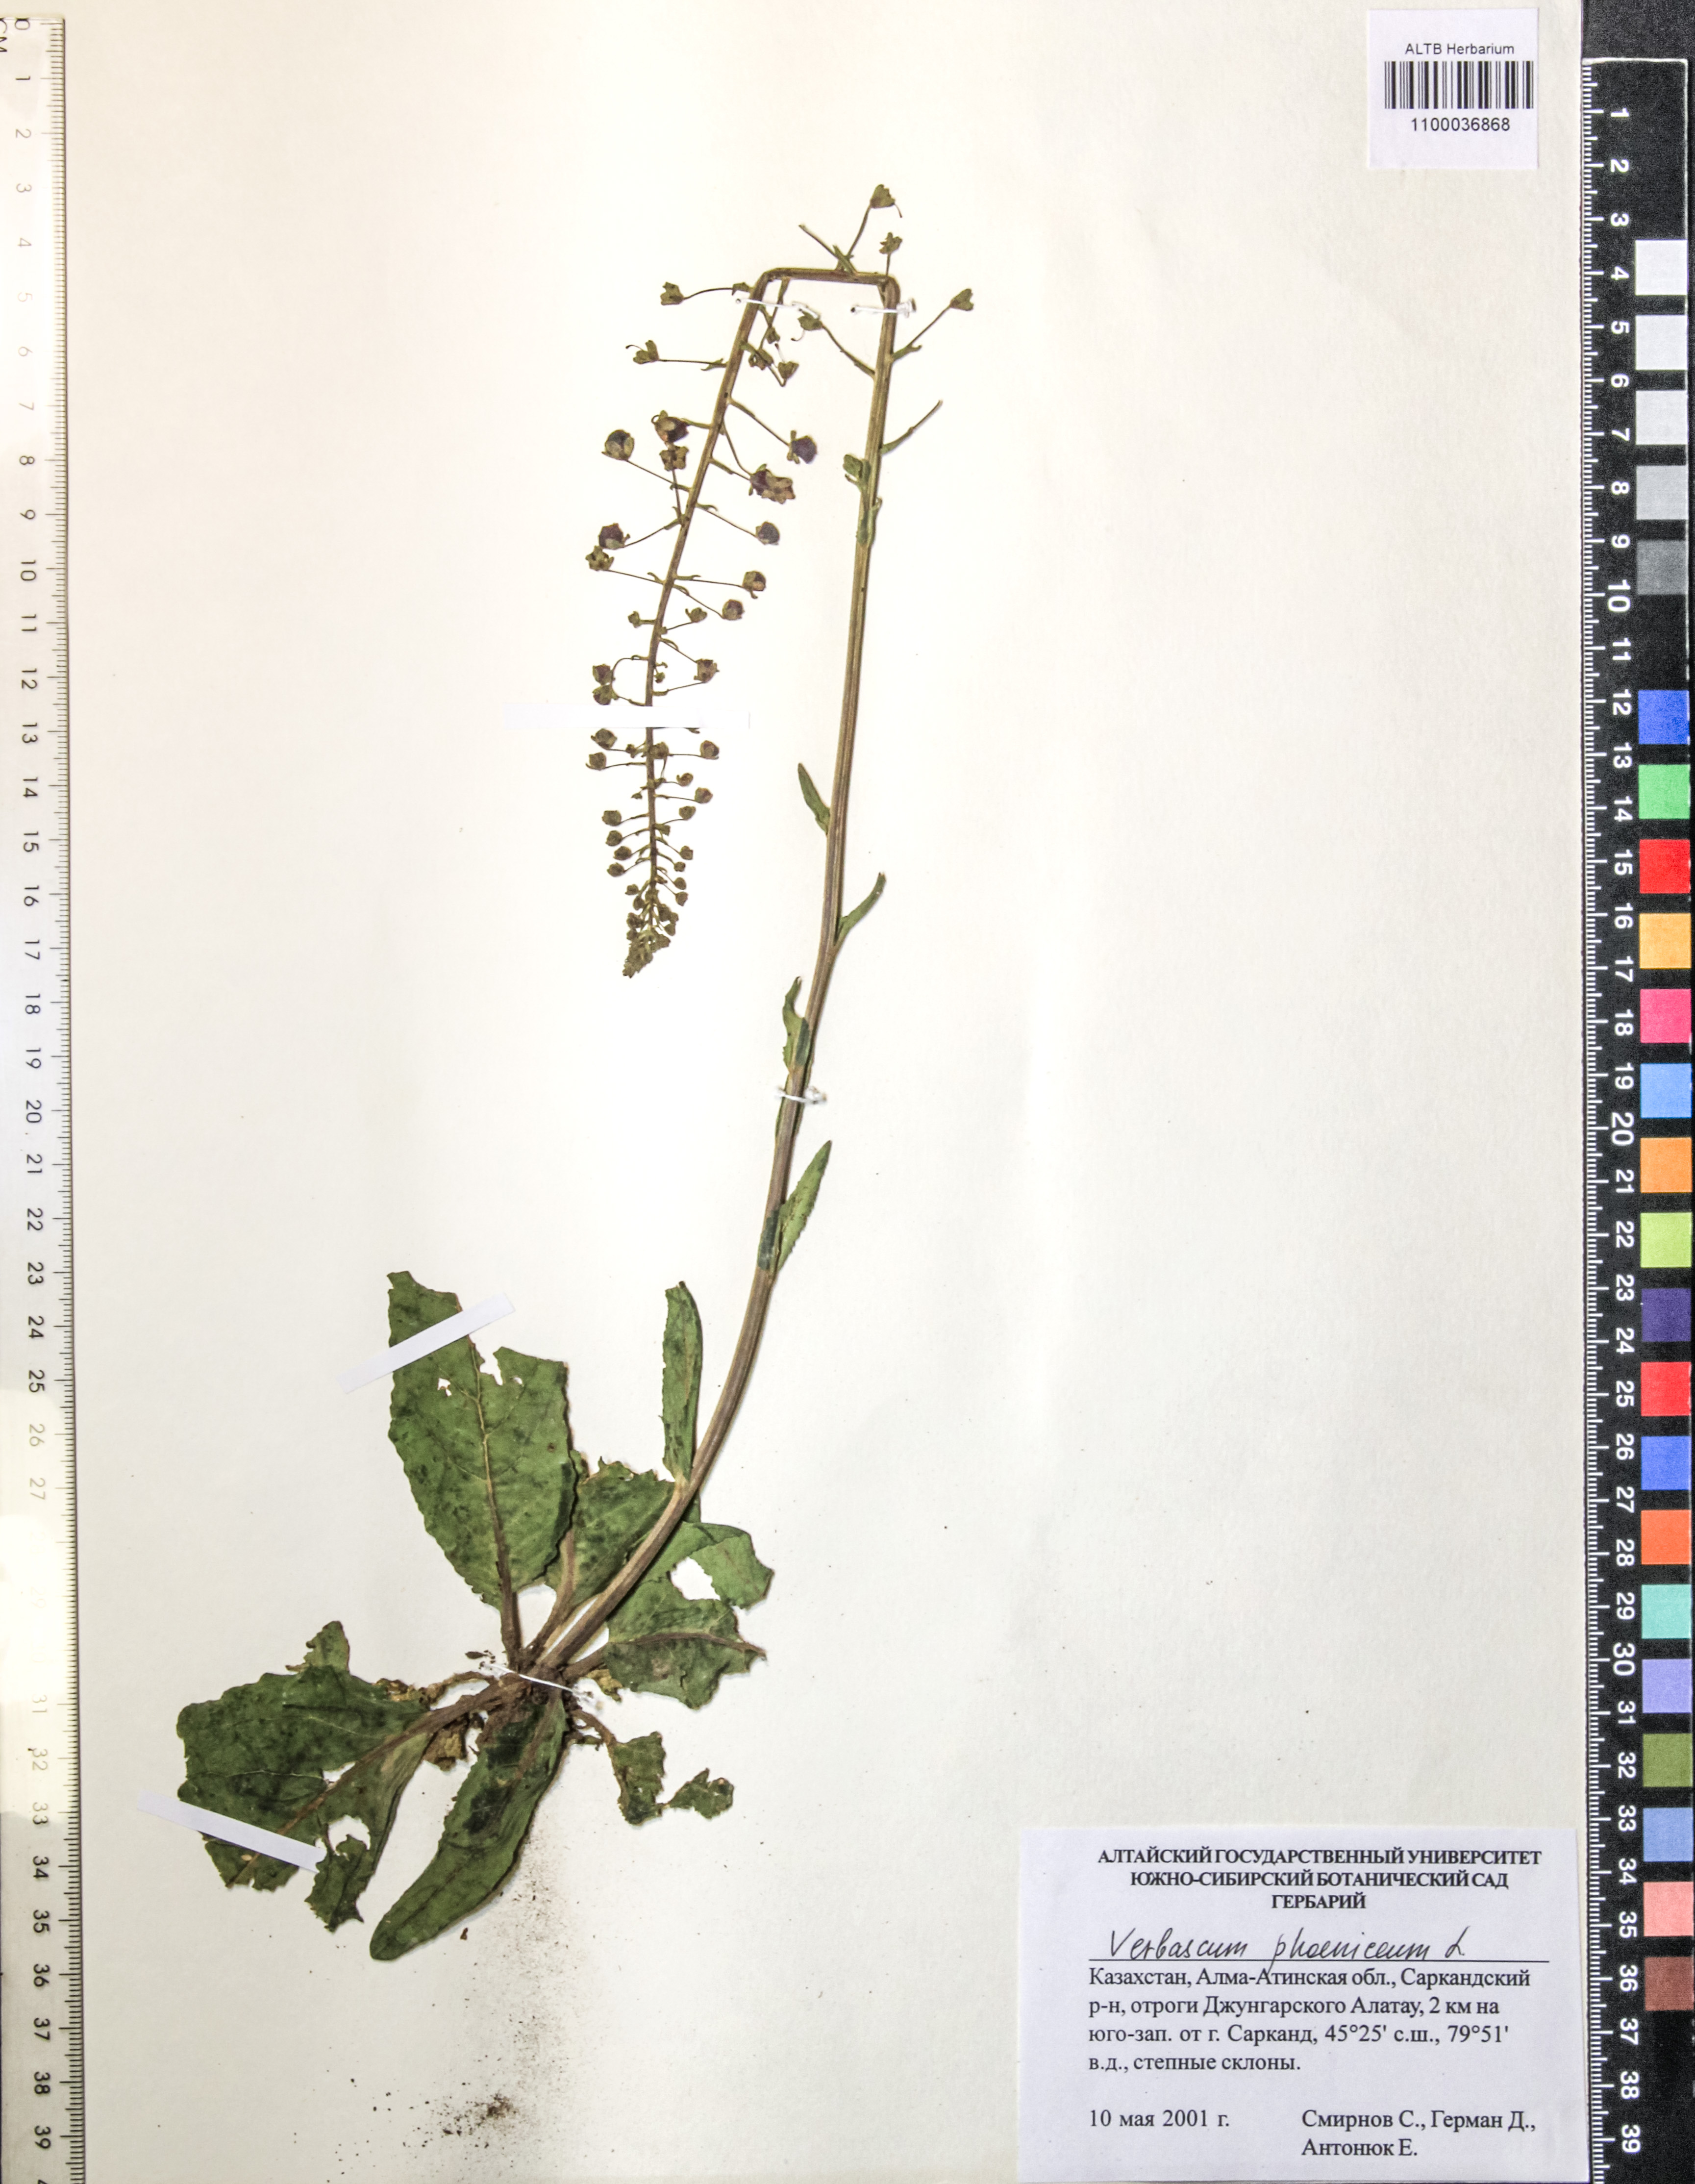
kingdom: Plantae
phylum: Tracheophyta
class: Magnoliopsida
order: Lamiales
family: Scrophulariaceae
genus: Verbascum
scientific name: Verbascum phoeniceum
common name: Purple mullein
